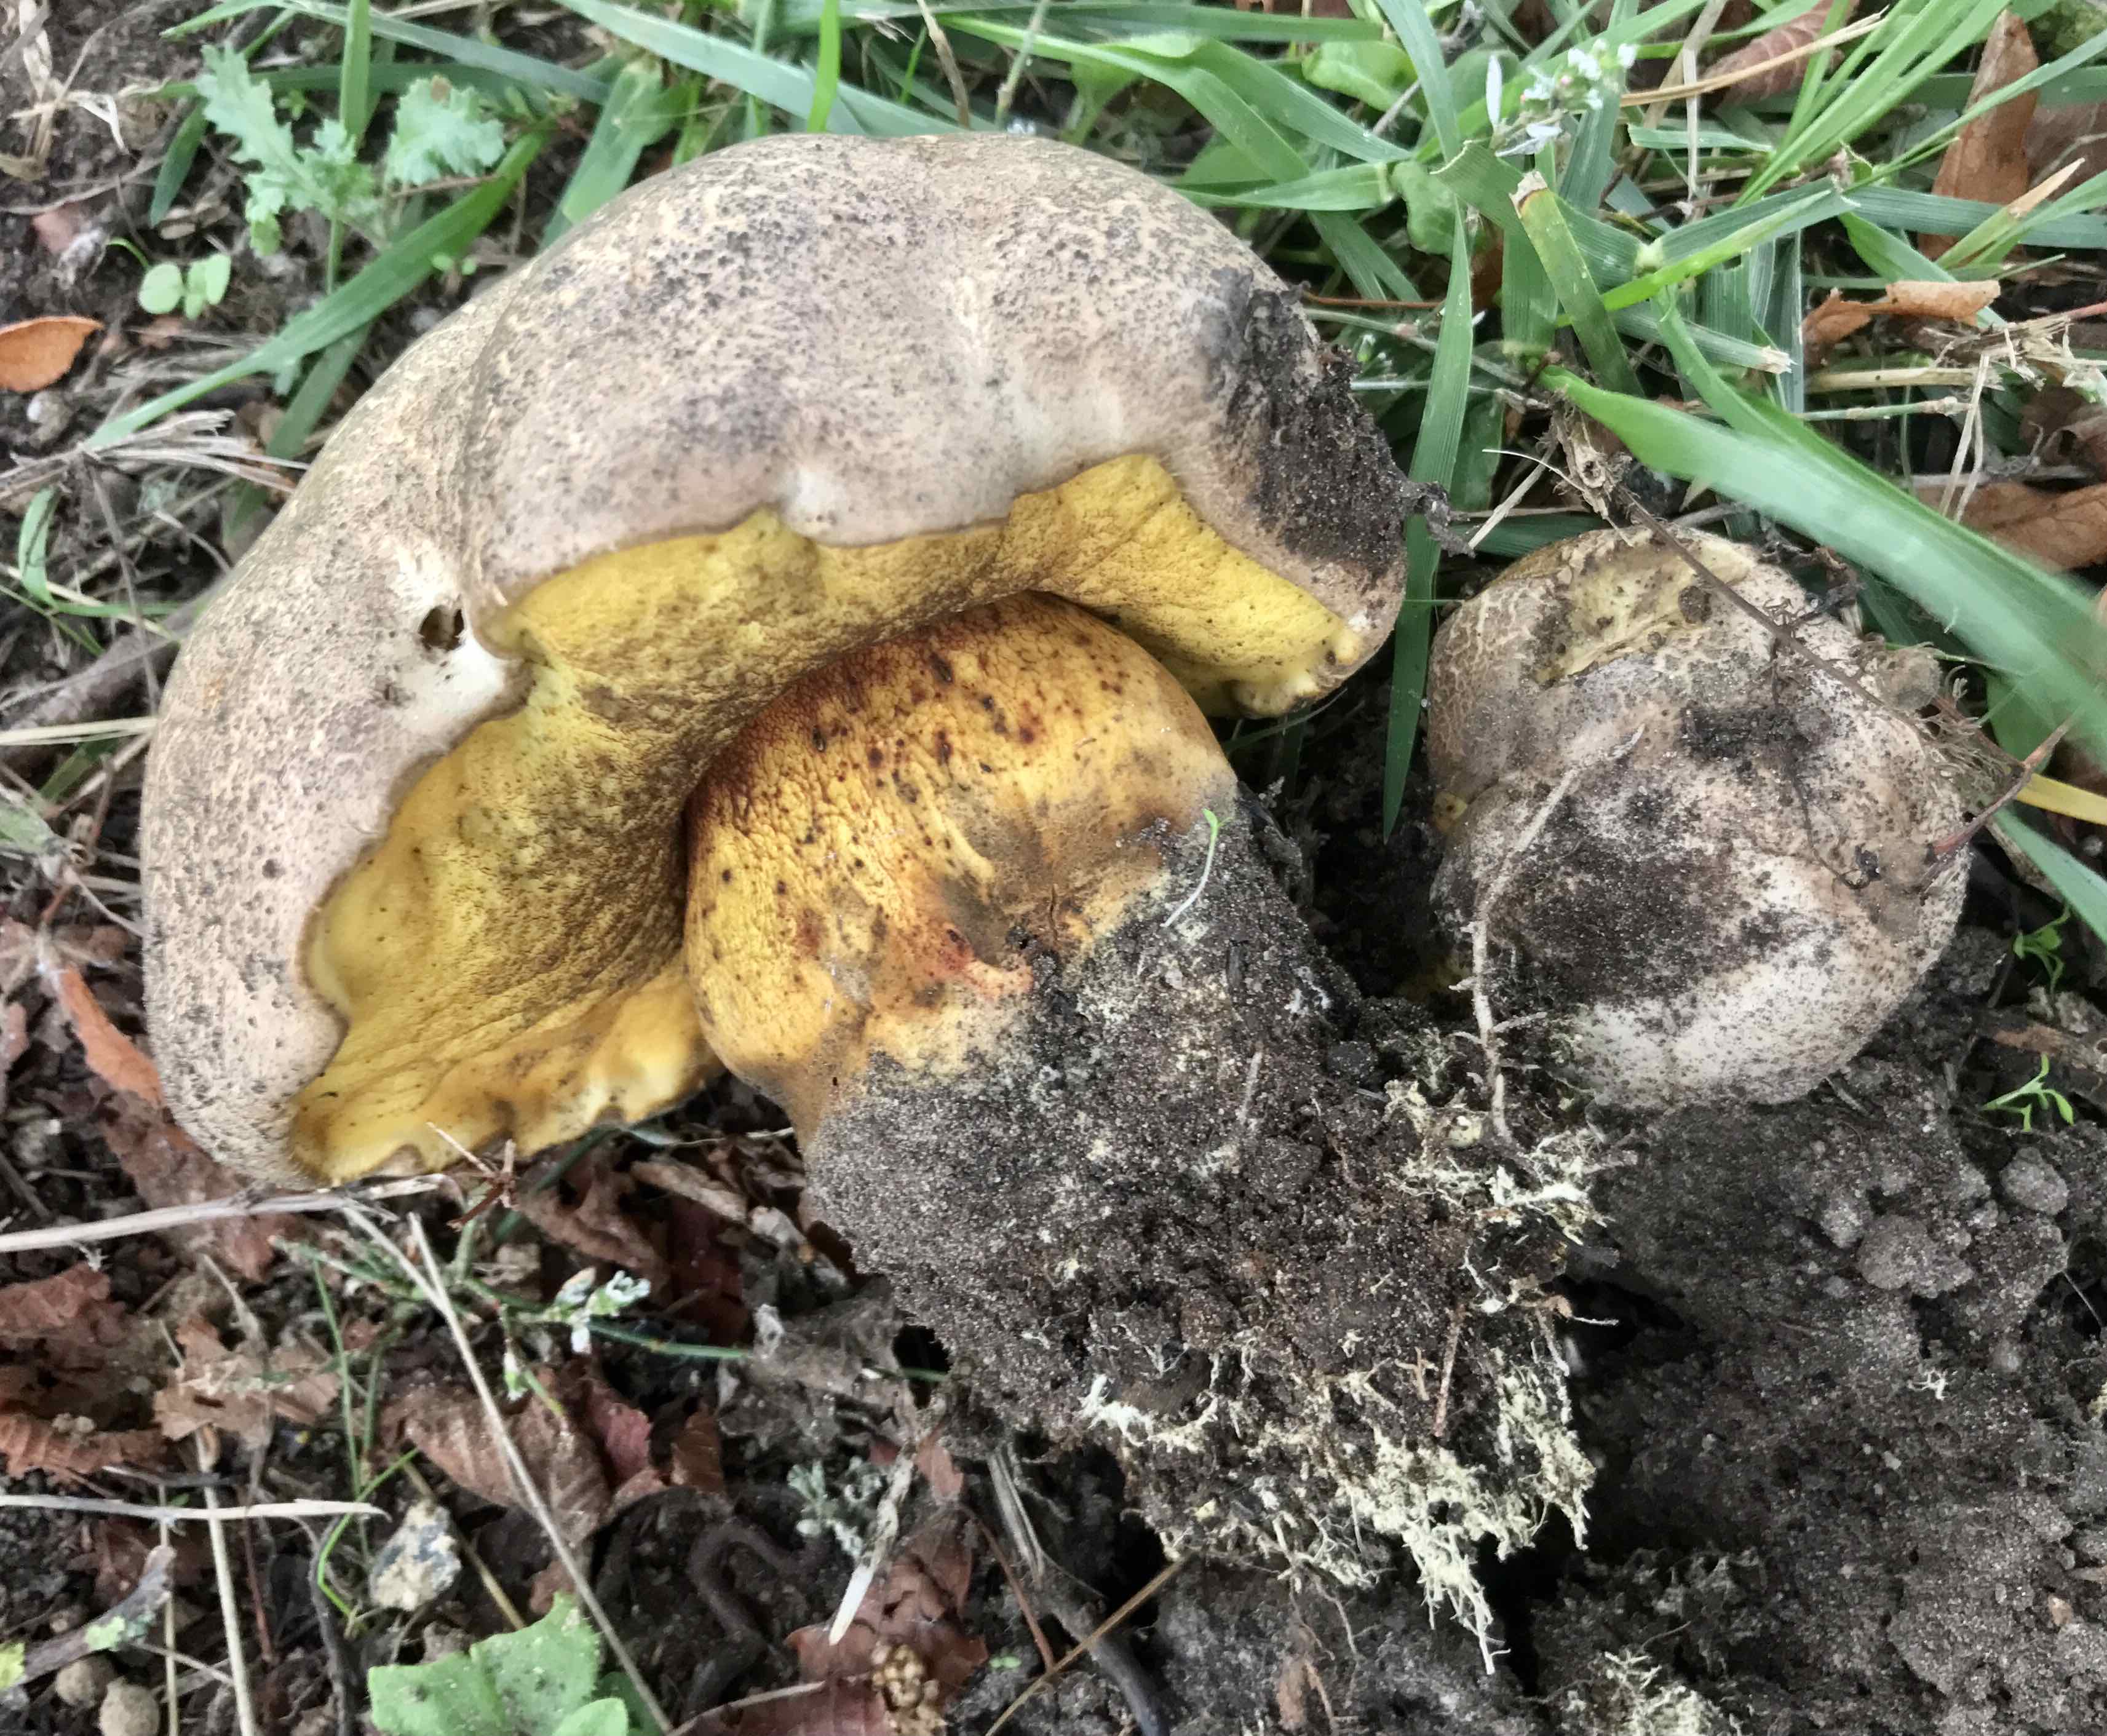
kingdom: Fungi
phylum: Basidiomycota
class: Agaricomycetes
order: Boletales
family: Boletaceae
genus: Caloboletus
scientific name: Caloboletus radicans
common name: rod-rørhat
